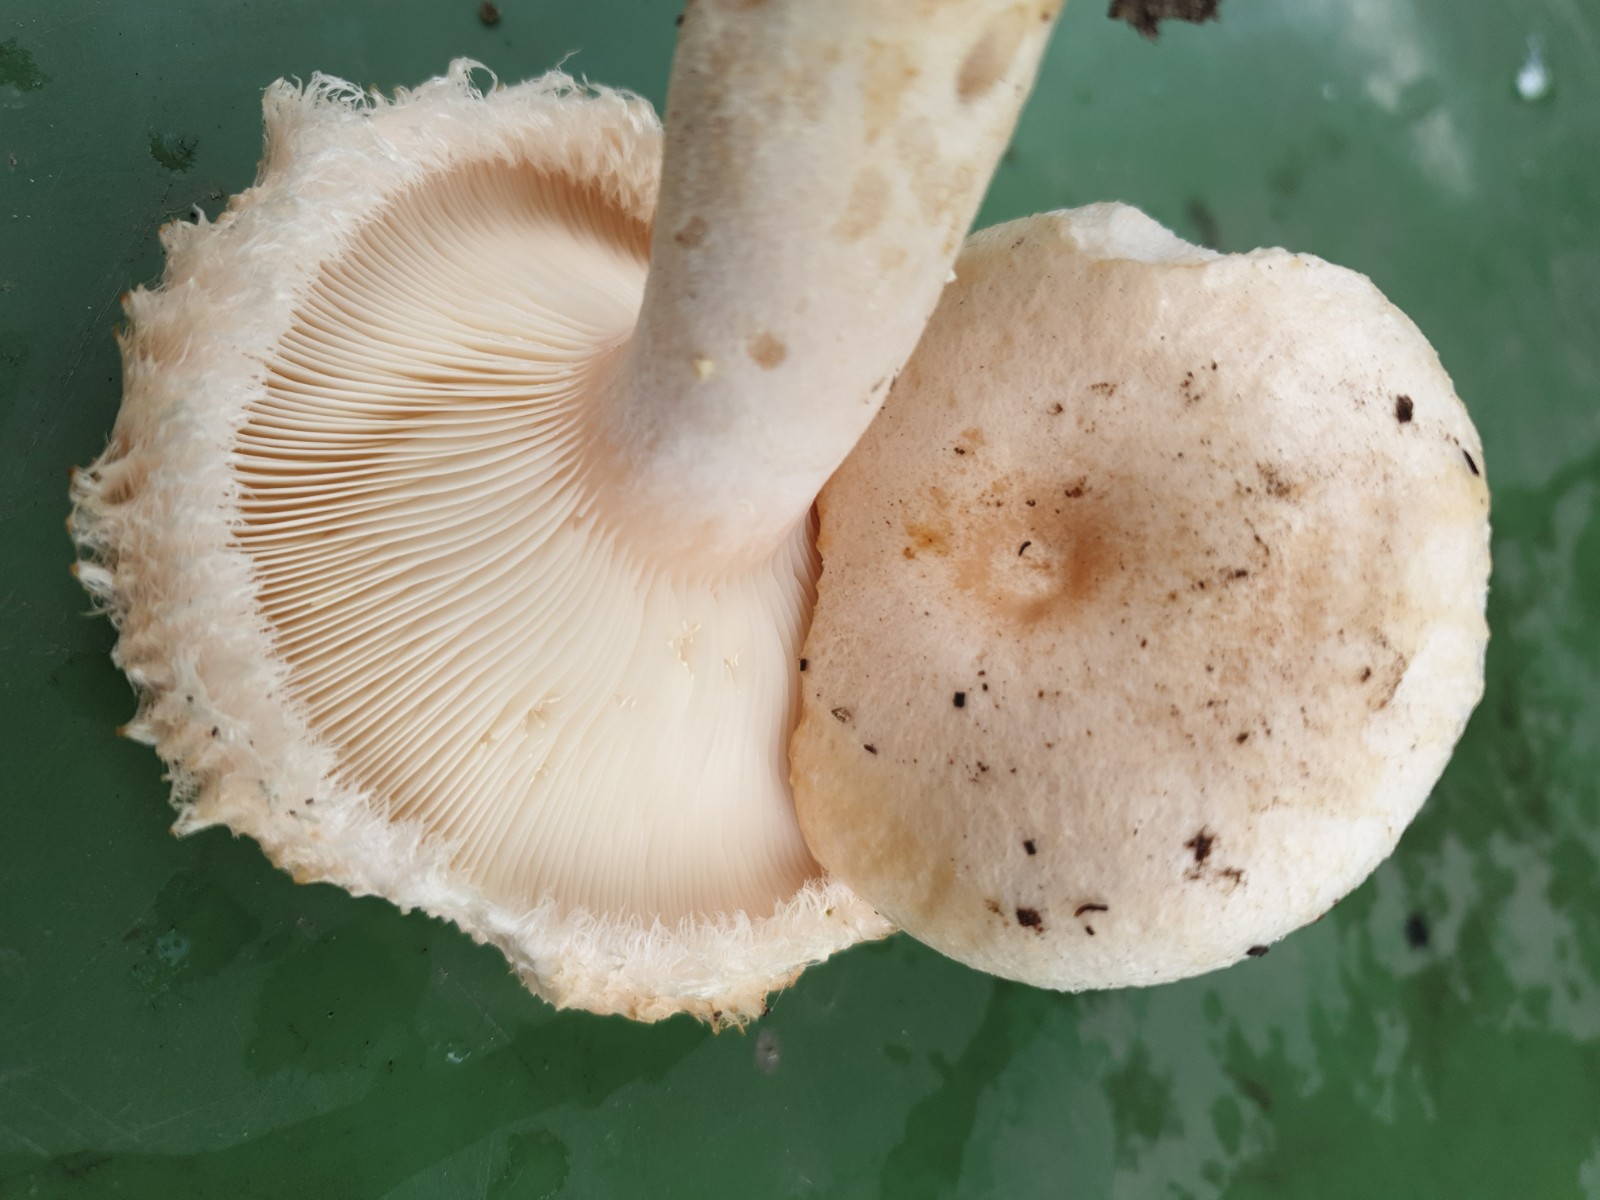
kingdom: Fungi
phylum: Basidiomycota
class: Agaricomycetes
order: Russulales
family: Russulaceae
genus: Lactarius
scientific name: Lactarius pubescens
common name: dunet mælkehat
